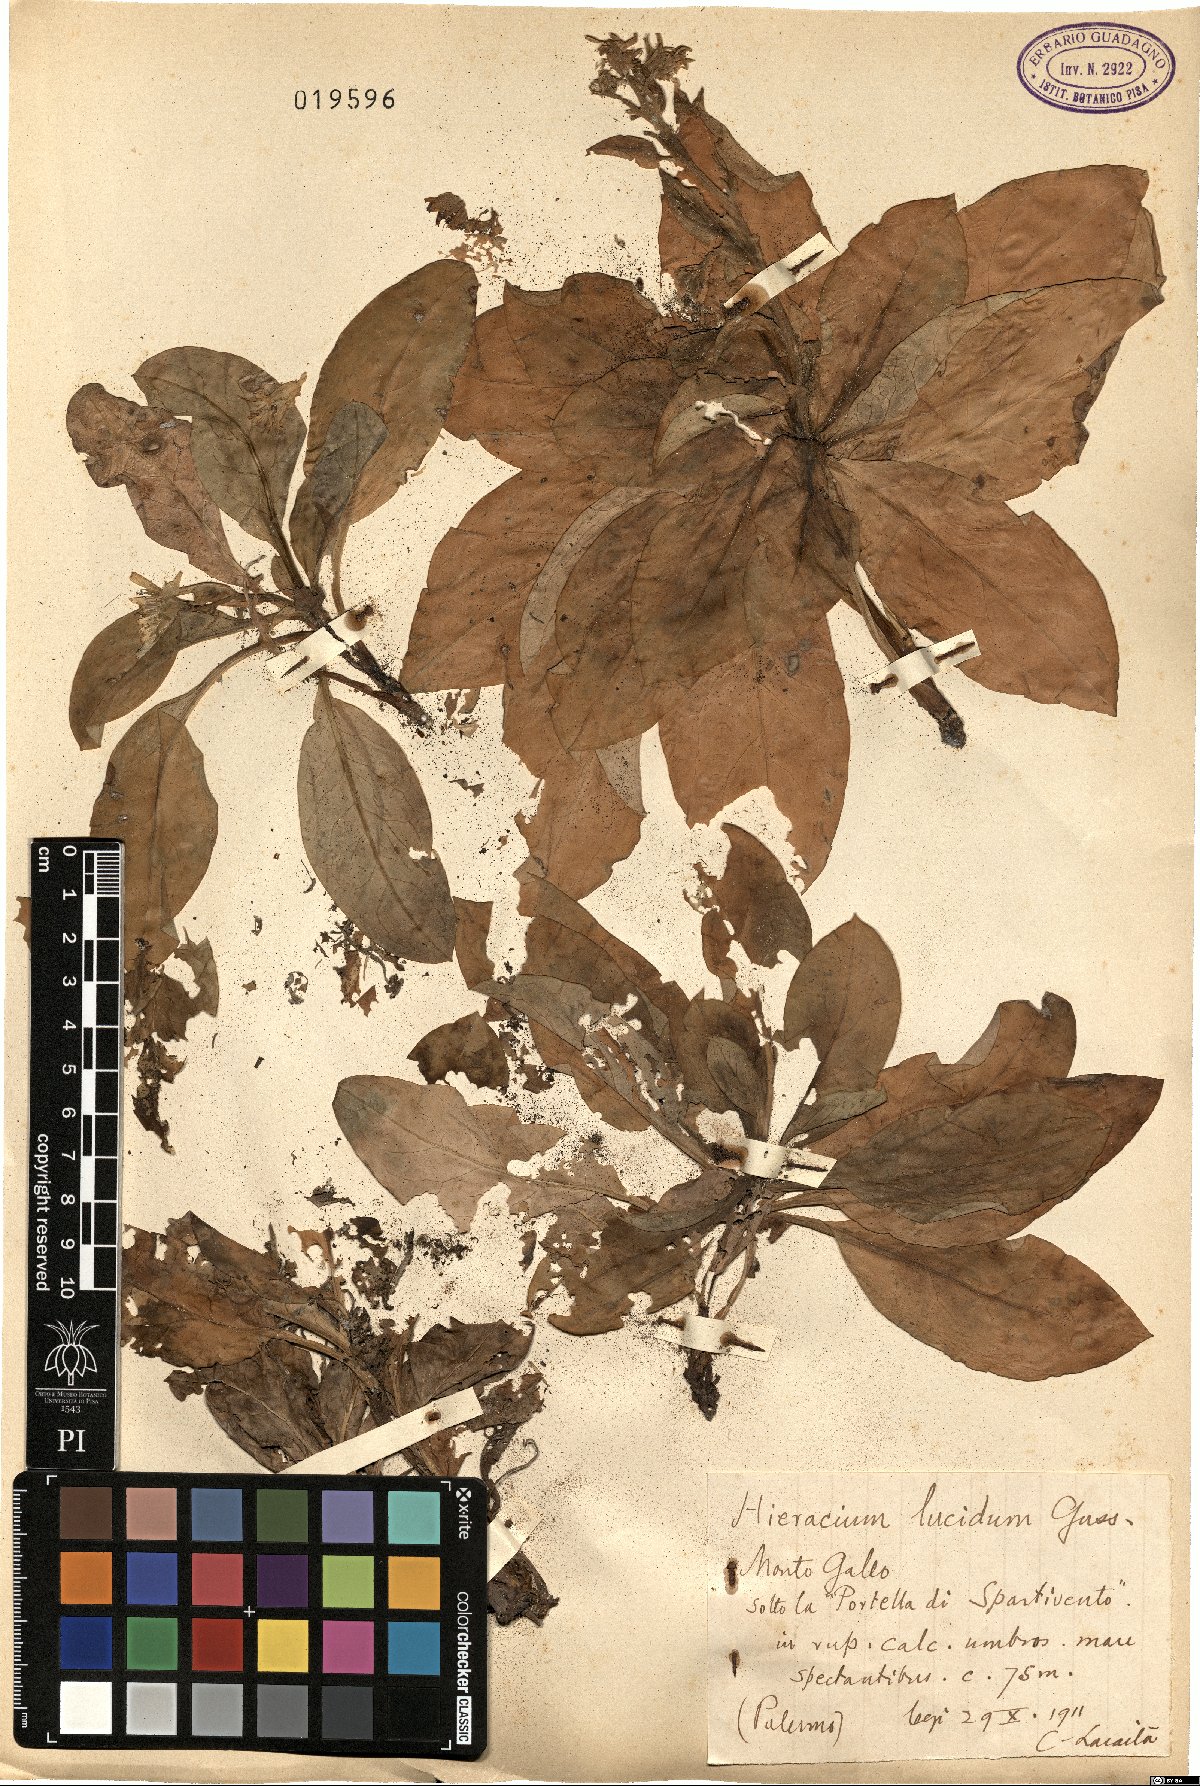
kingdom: Plantae
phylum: Tracheophyta
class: Magnoliopsida
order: Asterales
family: Asteraceae
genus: Hieracium
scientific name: Hieracium lucidum
